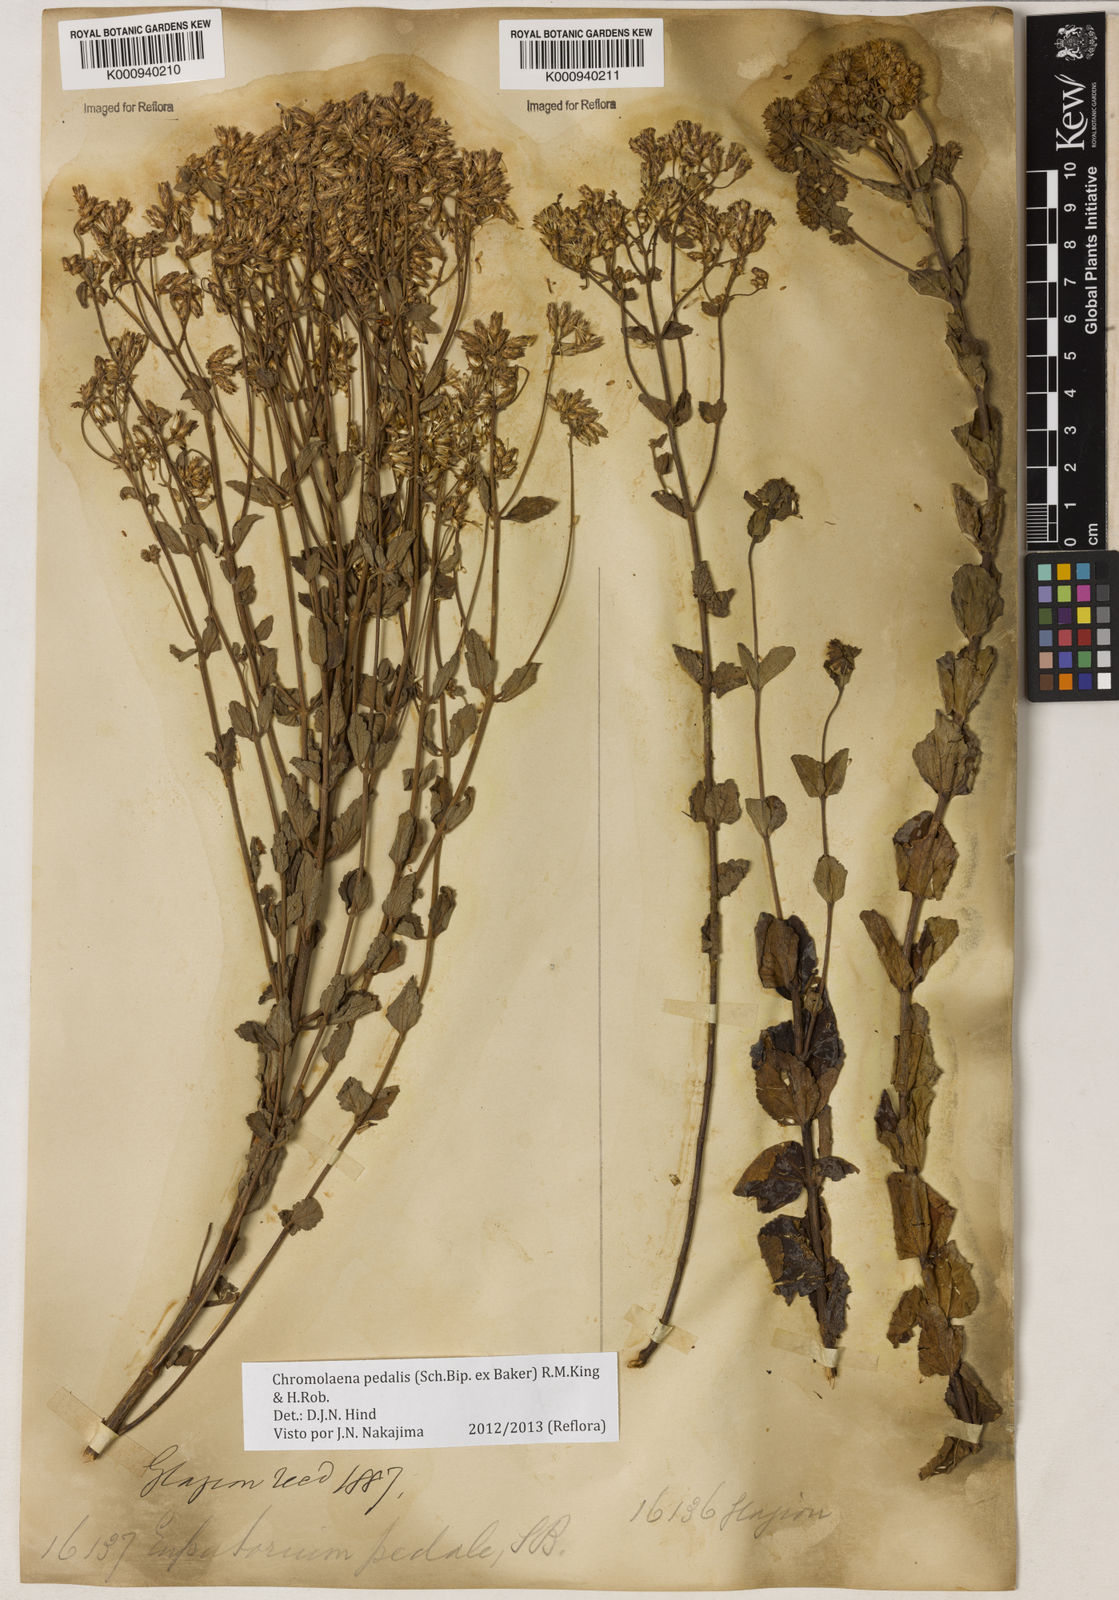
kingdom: Plantae
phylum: Tracheophyta
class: Magnoliopsida
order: Asterales
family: Asteraceae
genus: Chromolaena
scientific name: Chromolaena pedalis
